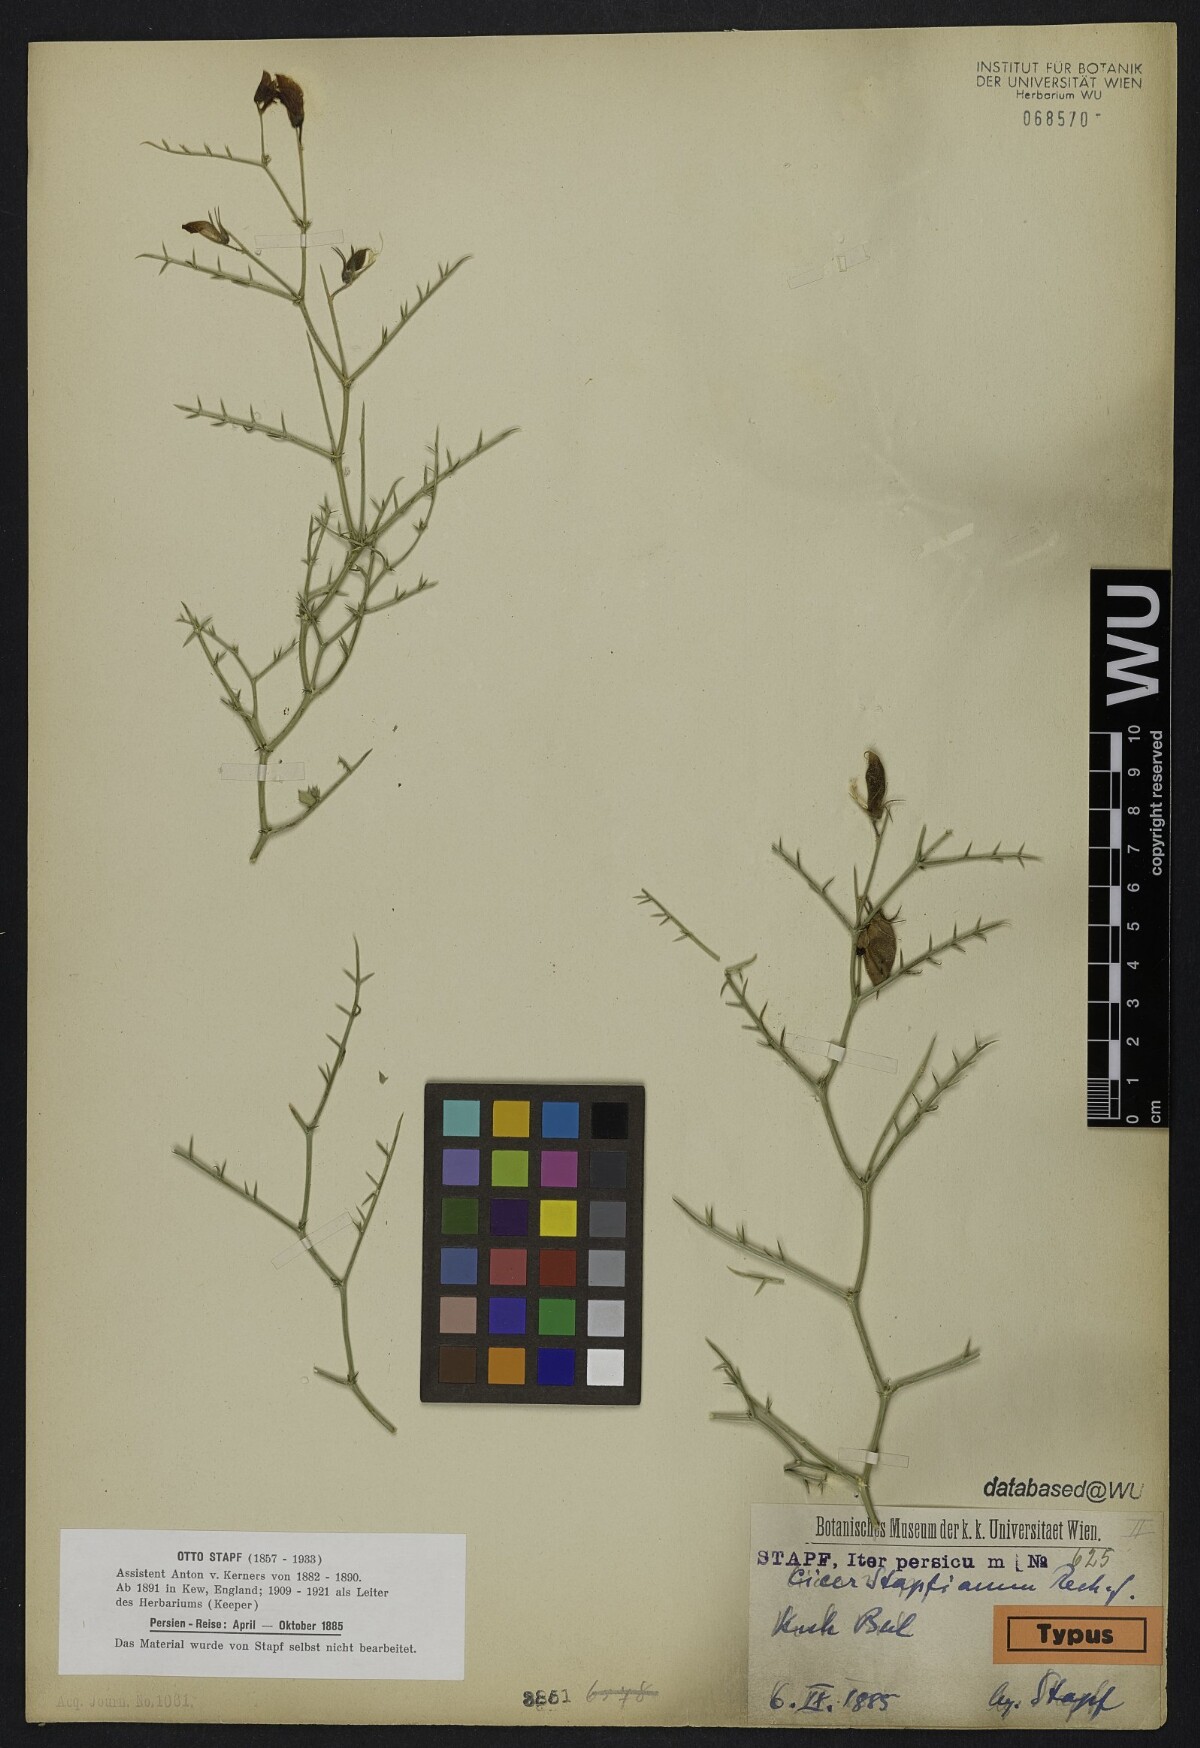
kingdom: Plantae
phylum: Tracheophyta
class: Magnoliopsida
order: Fabales
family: Fabaceae
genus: Cicer
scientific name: Cicer stapfianum
